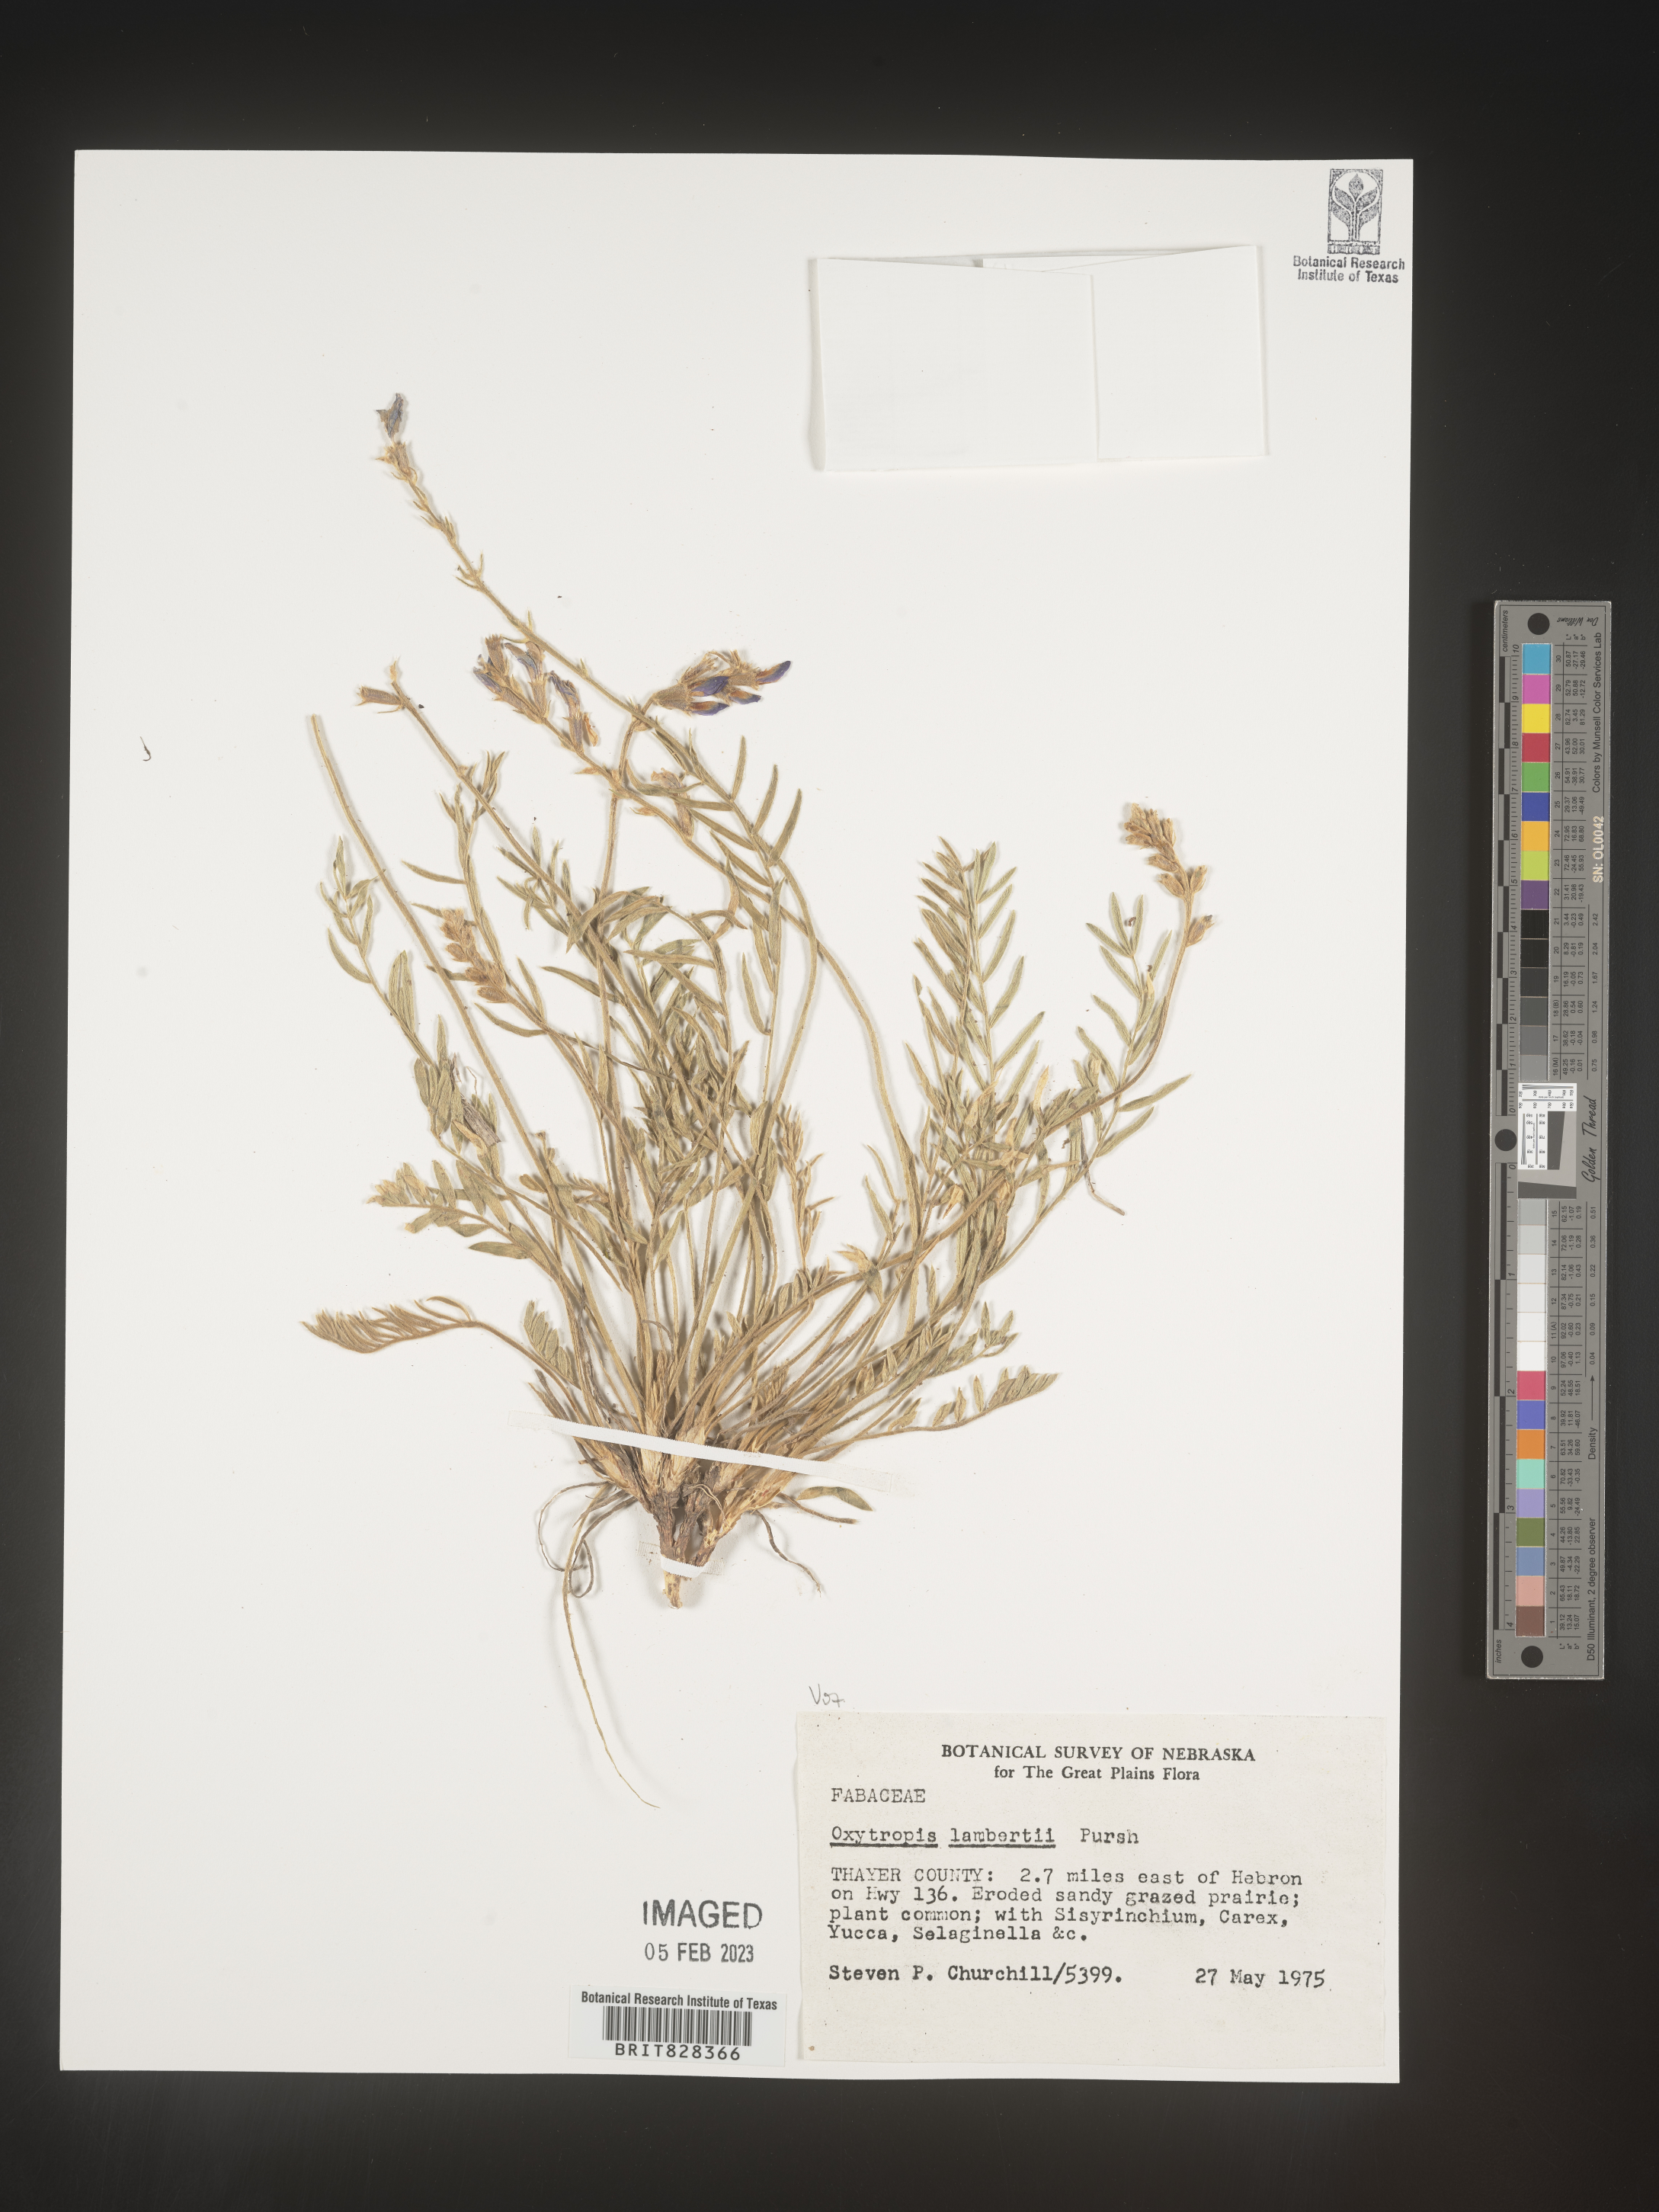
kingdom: Plantae
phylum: Tracheophyta
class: Magnoliopsida
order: Fabales
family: Fabaceae
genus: Oxytropis
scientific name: Oxytropis lambertii
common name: Purple locoweed
